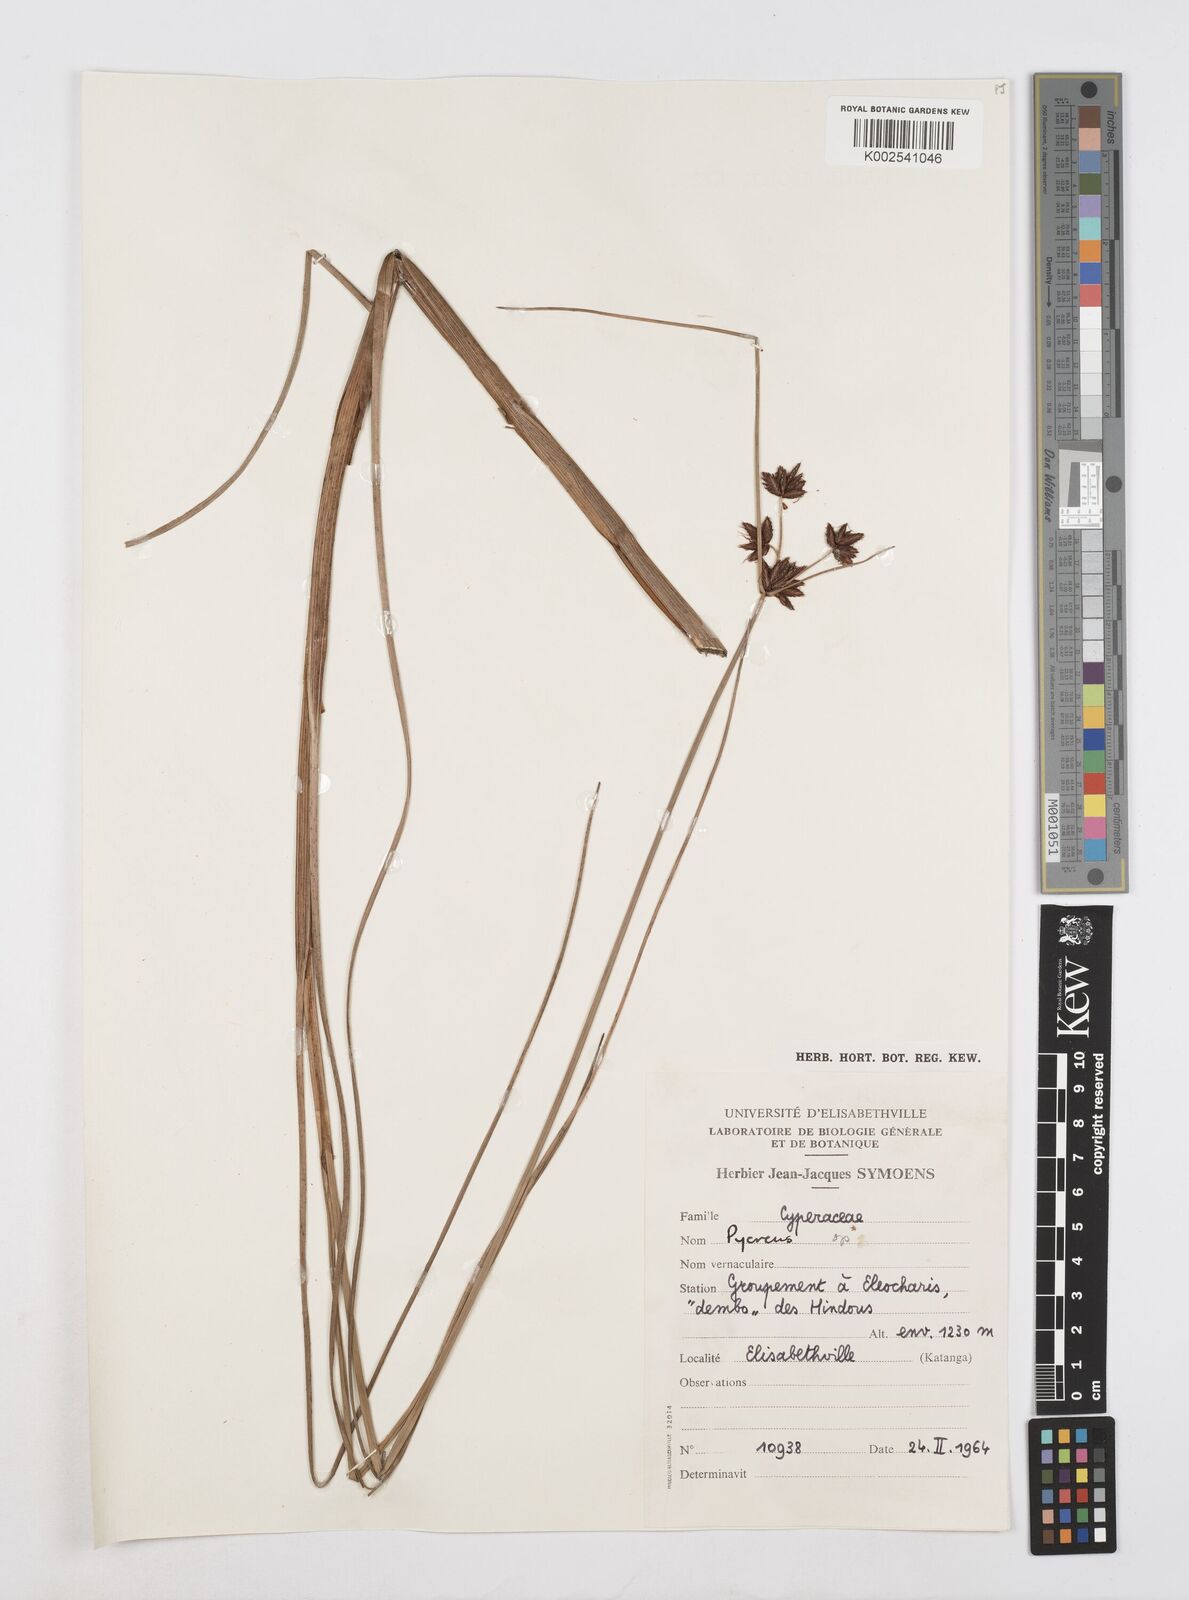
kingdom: Plantae
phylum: Tracheophyta
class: Liliopsida
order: Poales
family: Cyperaceae
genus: Cyperus
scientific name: Cyperus
